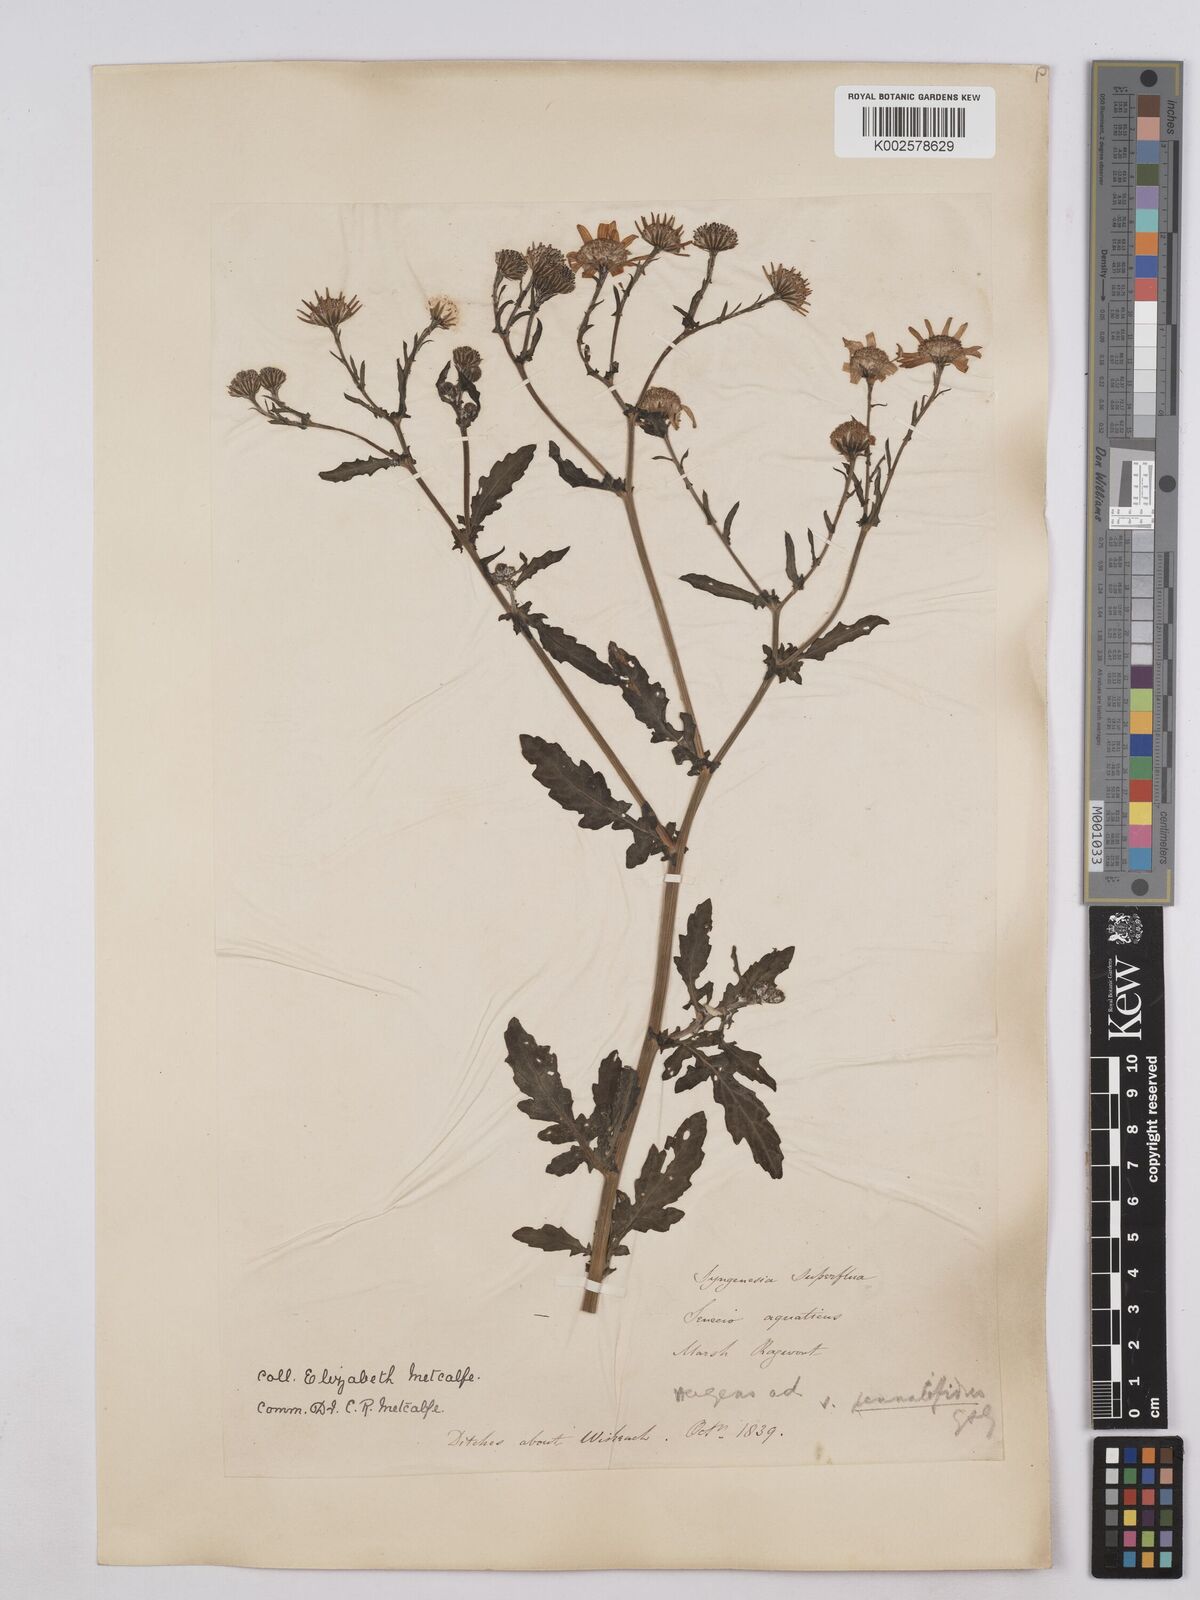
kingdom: Plantae
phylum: Tracheophyta
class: Magnoliopsida
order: Asterales
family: Asteraceae
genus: Jacobaea
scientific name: Jacobaea aquatica
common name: Water ragwort
